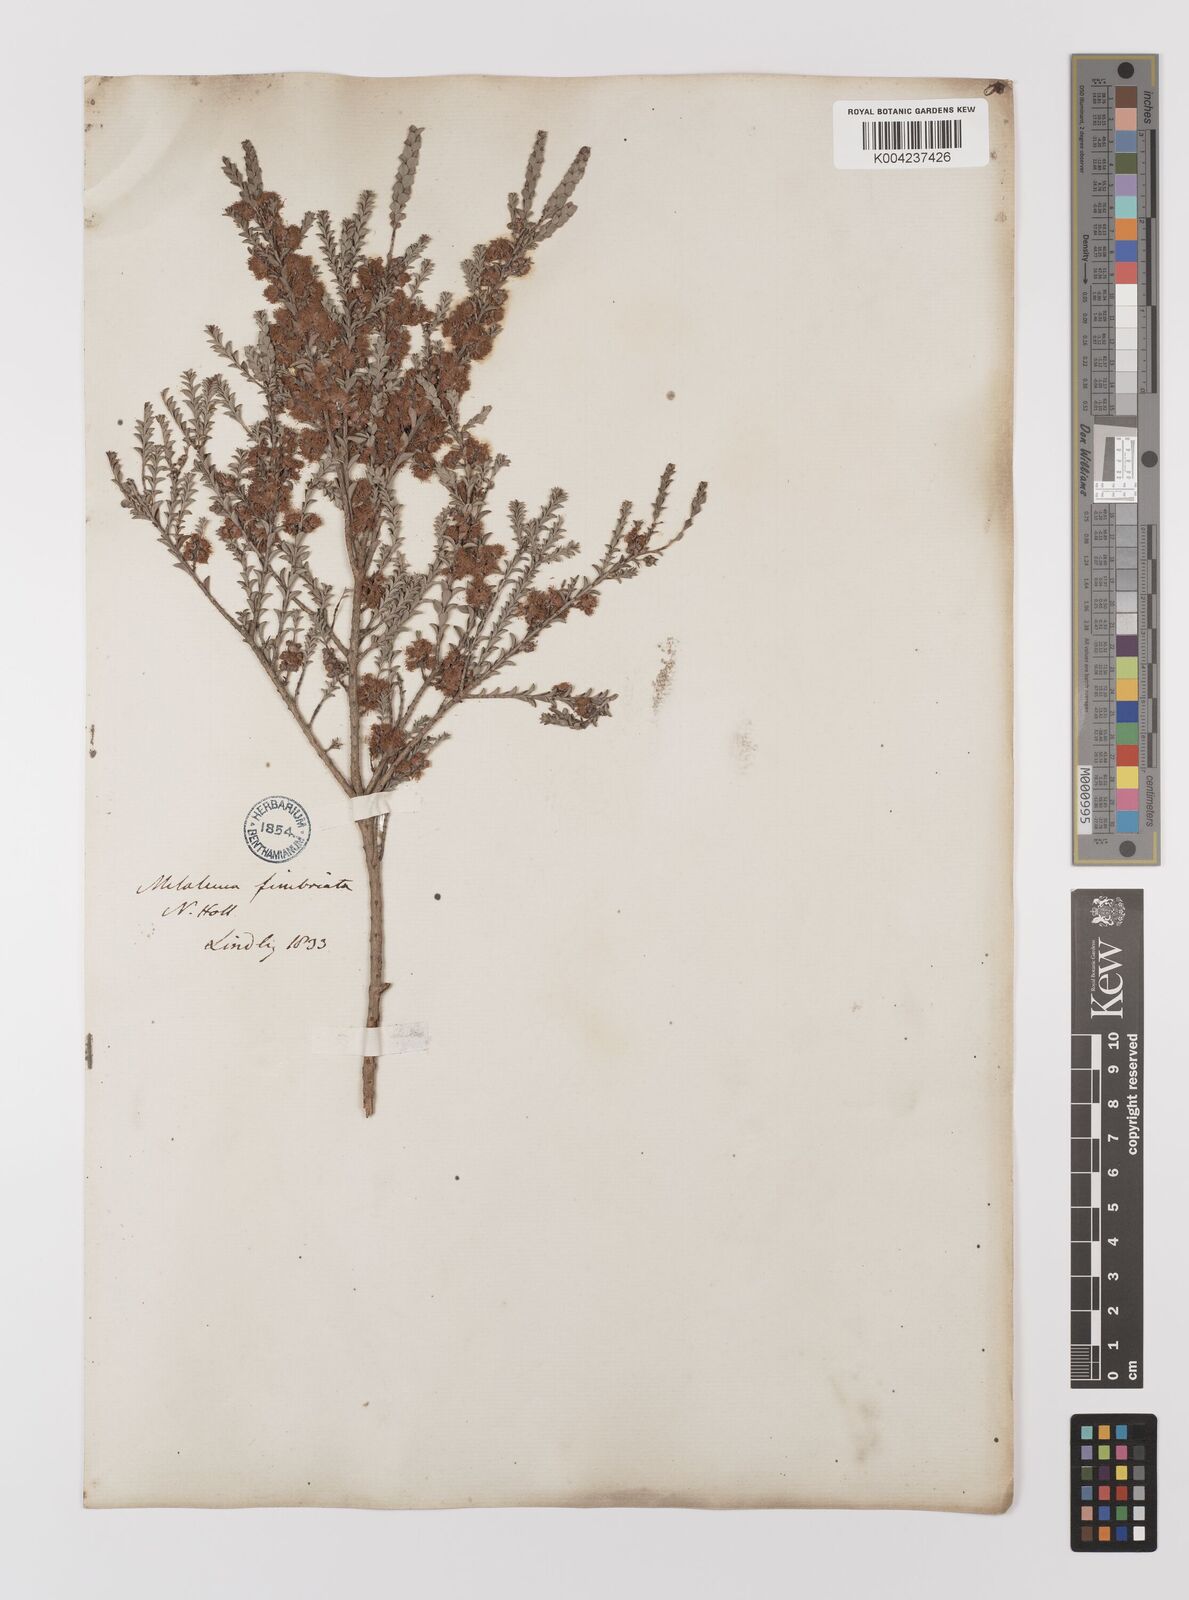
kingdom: Plantae
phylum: Tracheophyta
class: Magnoliopsida
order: Myrtales
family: Myrtaceae
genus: Melaleuca
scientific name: Melaleuca
